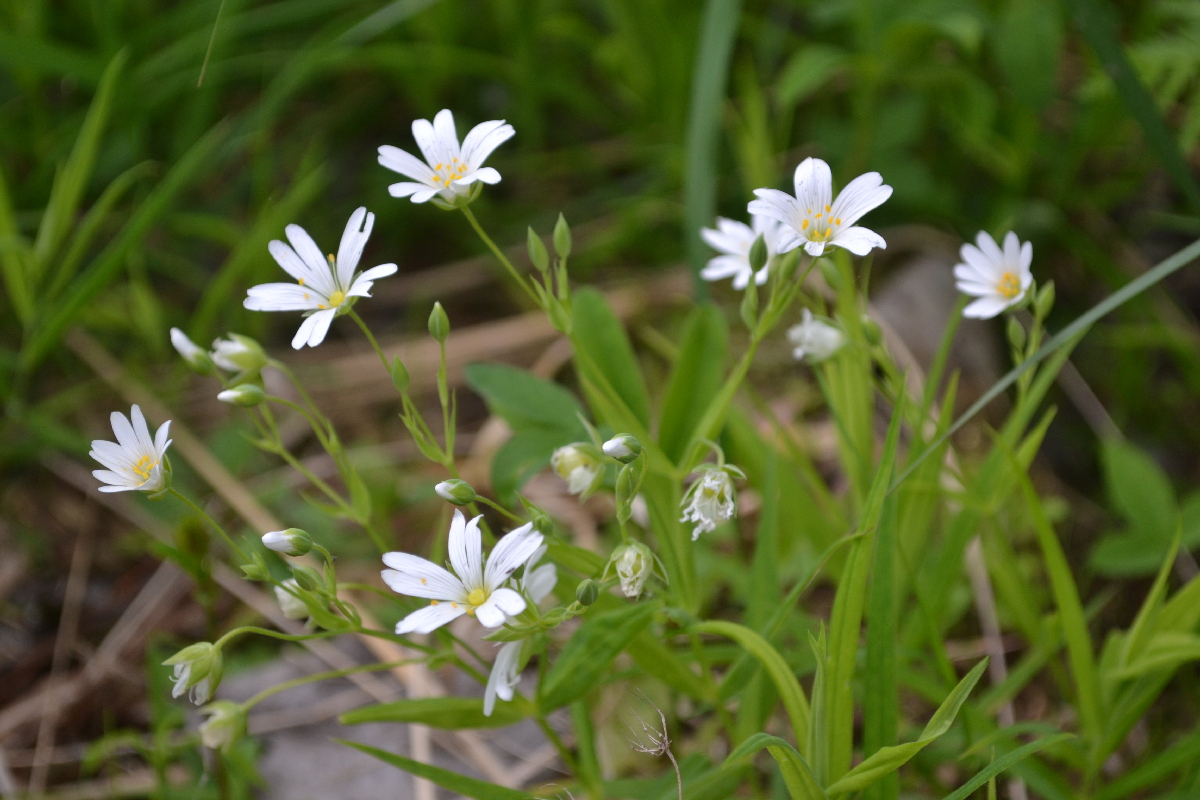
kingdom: Plantae
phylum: Tracheophyta
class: Magnoliopsida
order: Caryophyllales
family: Caryophyllaceae
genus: Rabelera
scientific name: Rabelera holostea
